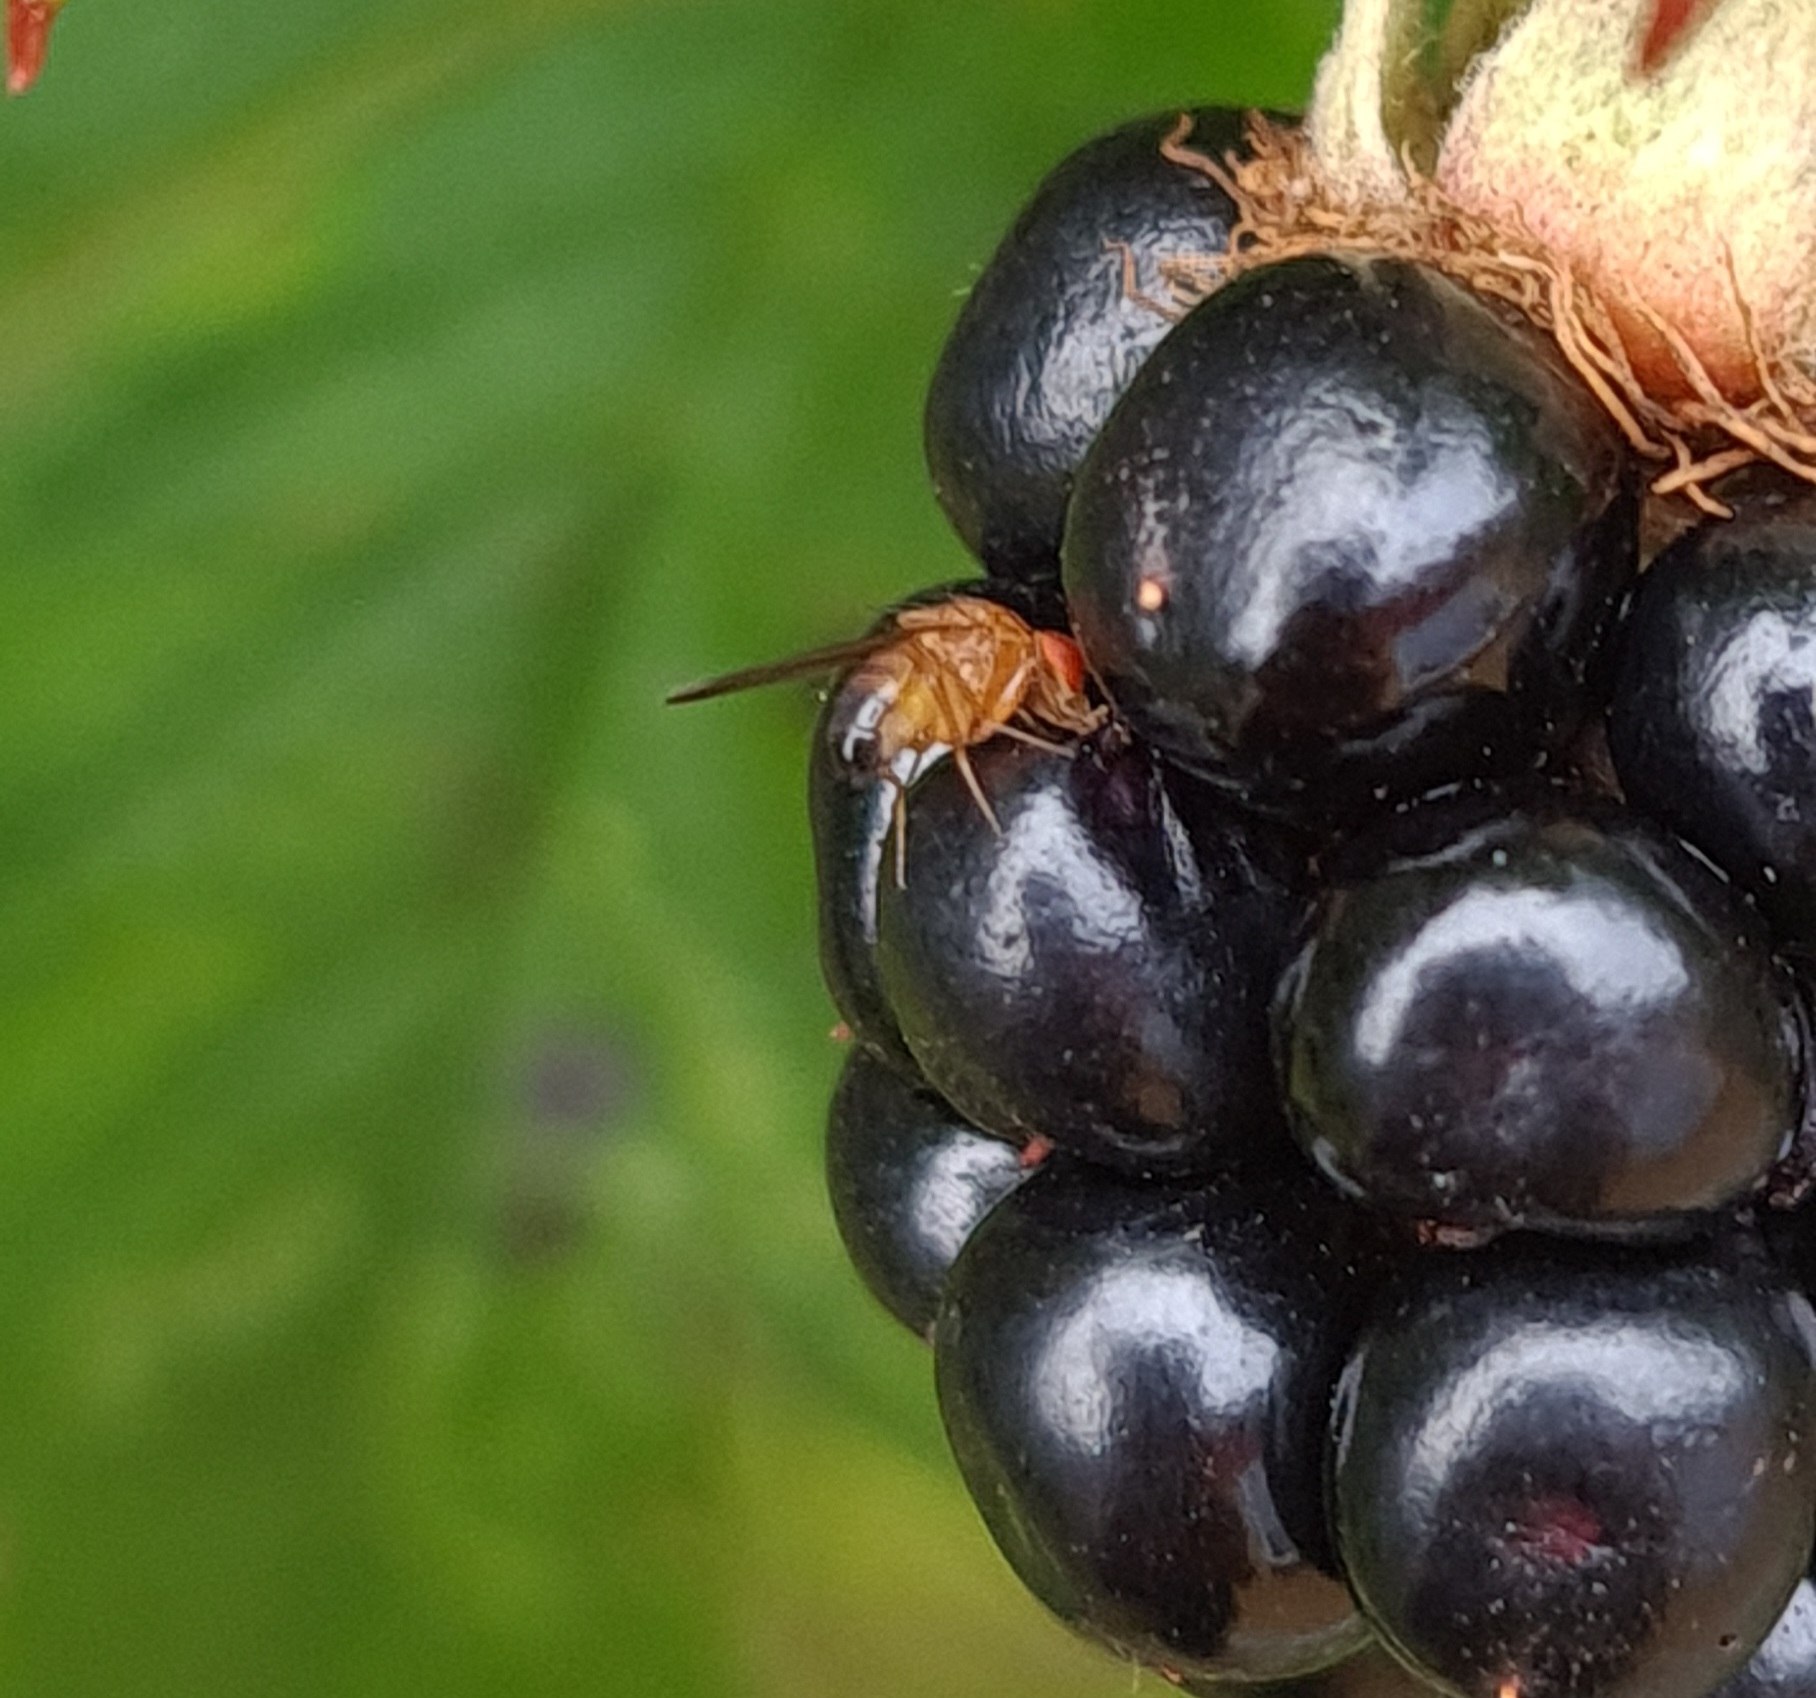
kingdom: Animalia
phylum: Arthropoda
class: Insecta
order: Diptera
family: Drosophilidae
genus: Drosophila
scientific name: Drosophila suzukii
